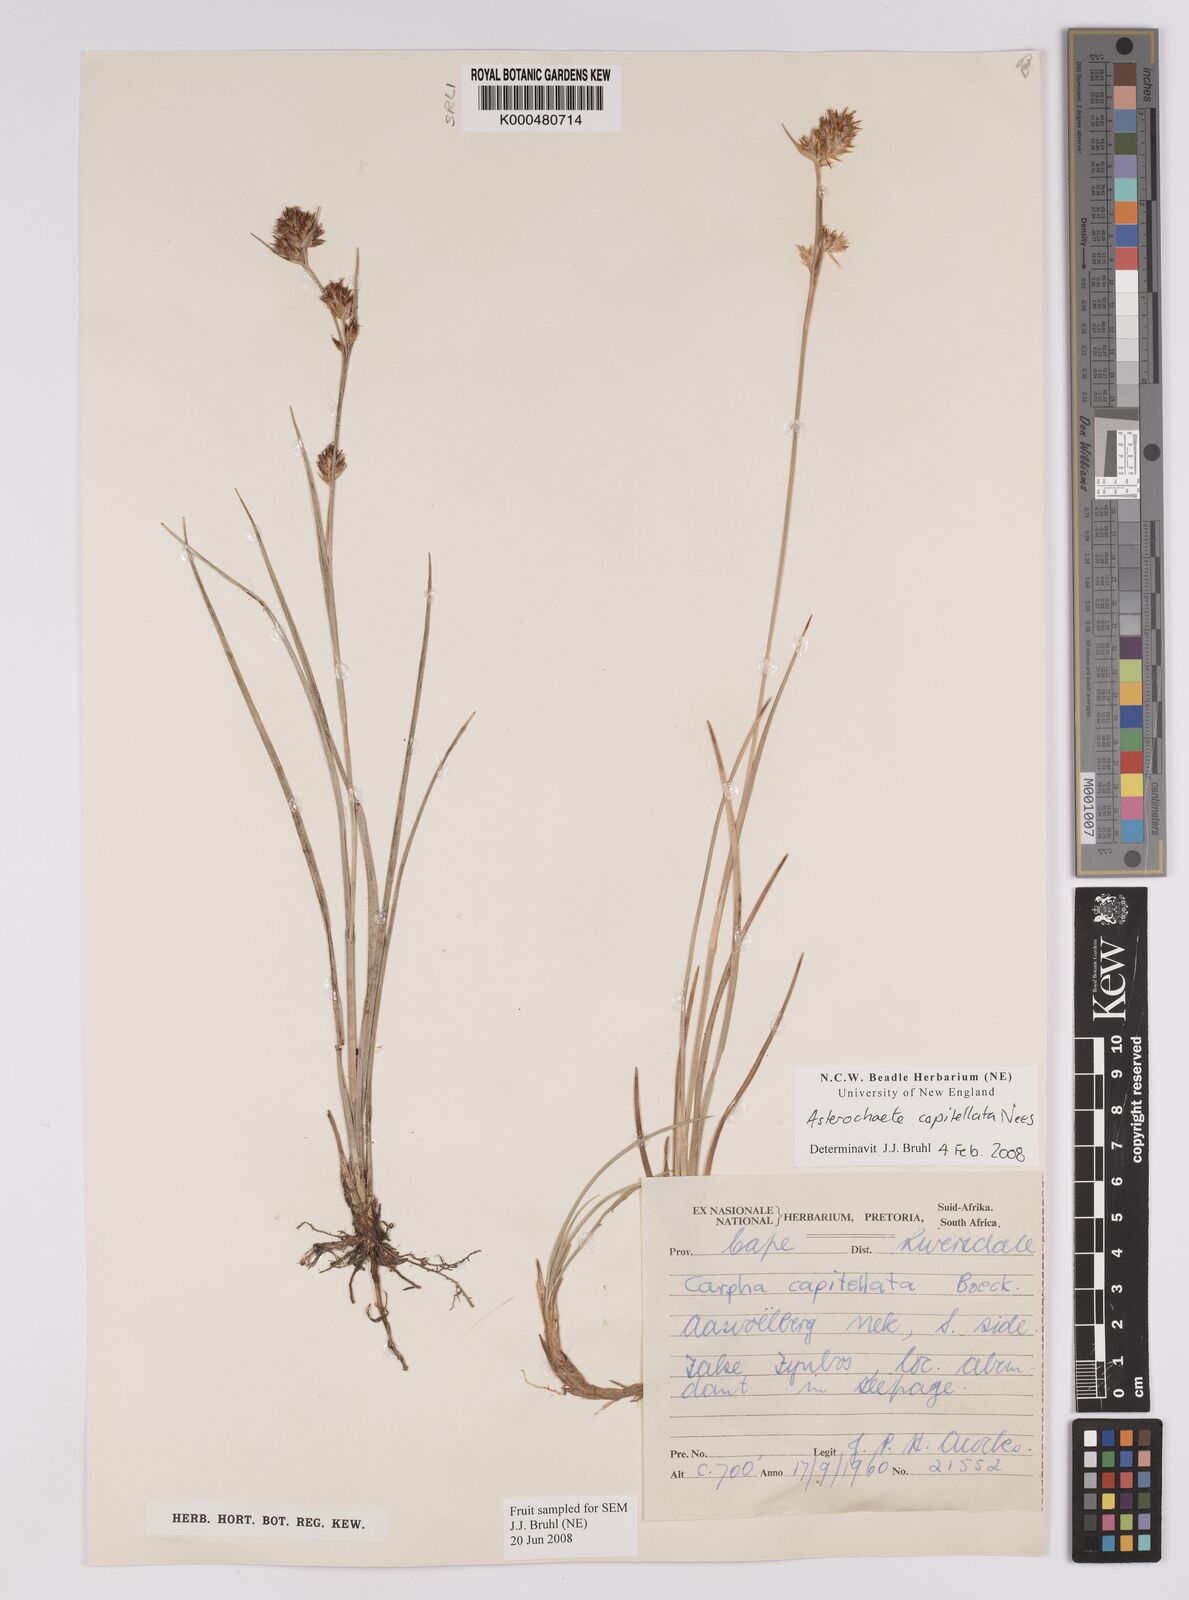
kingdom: Plantae
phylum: Tracheophyta
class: Liliopsida
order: Poales
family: Cyperaceae
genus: Carpha
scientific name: Carpha capitellata
